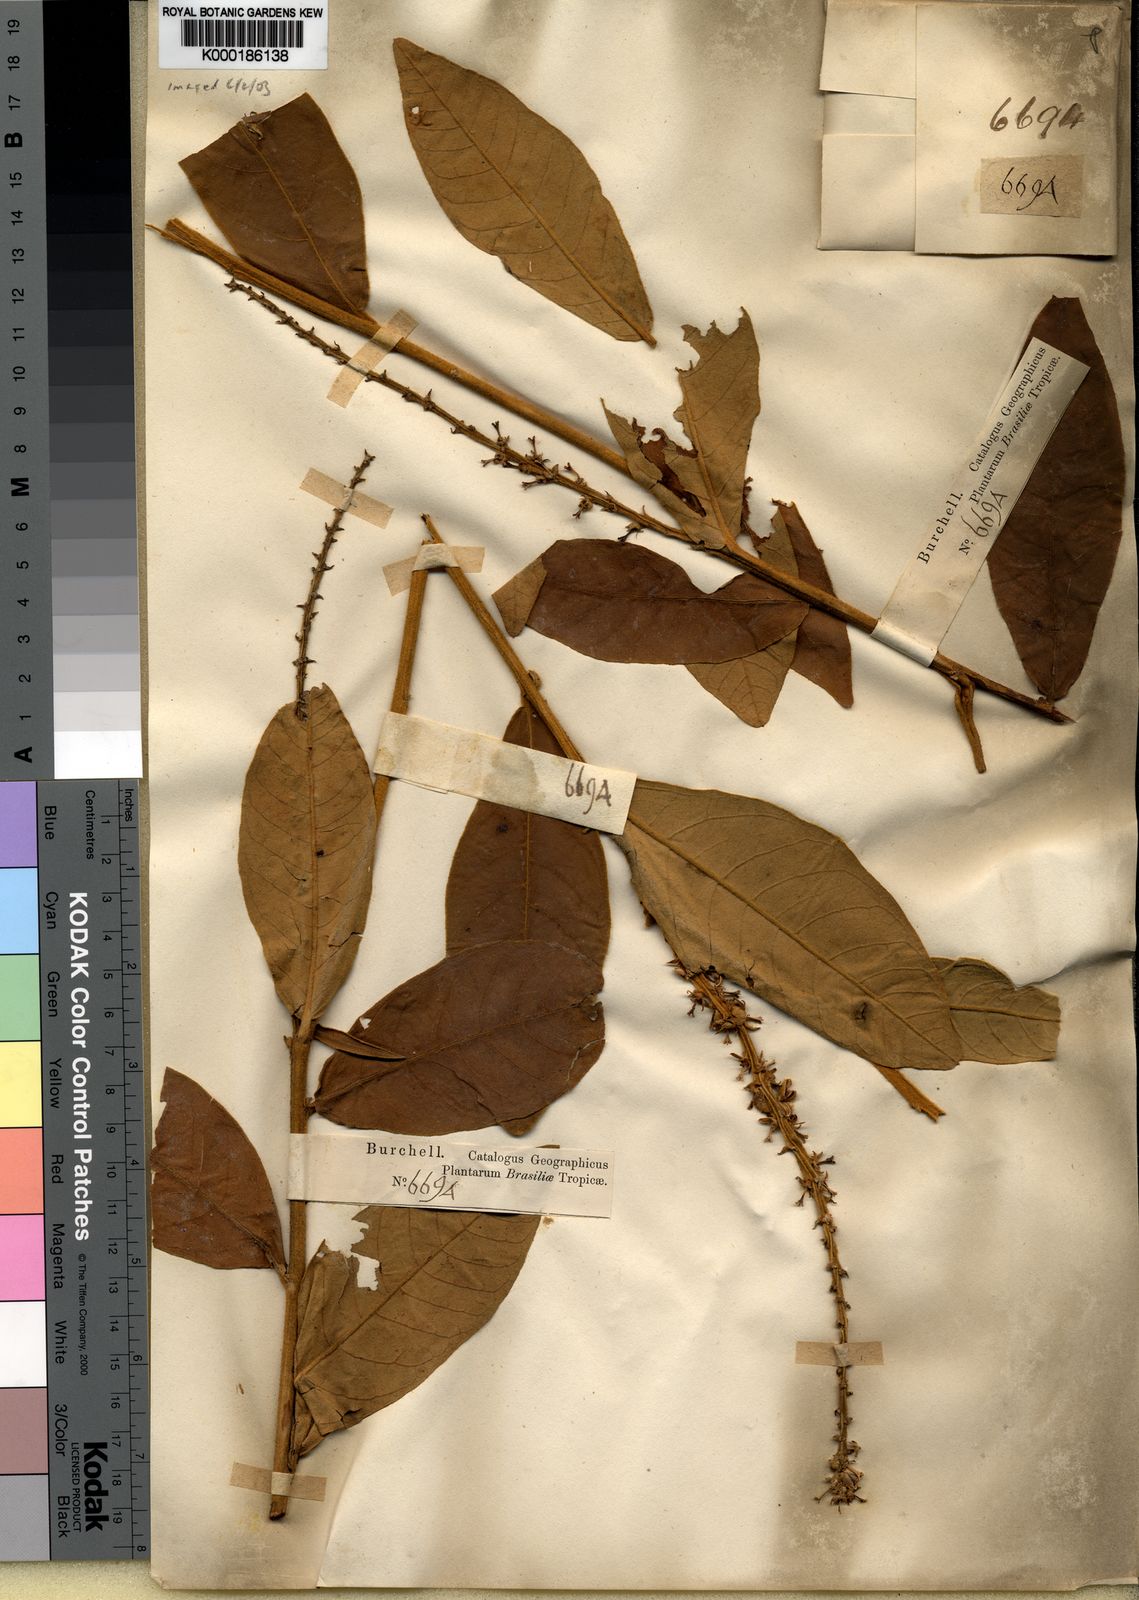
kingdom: Plantae
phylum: Tracheophyta
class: Magnoliopsida
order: Malpighiales
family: Euphorbiaceae
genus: Croton
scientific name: Croton
